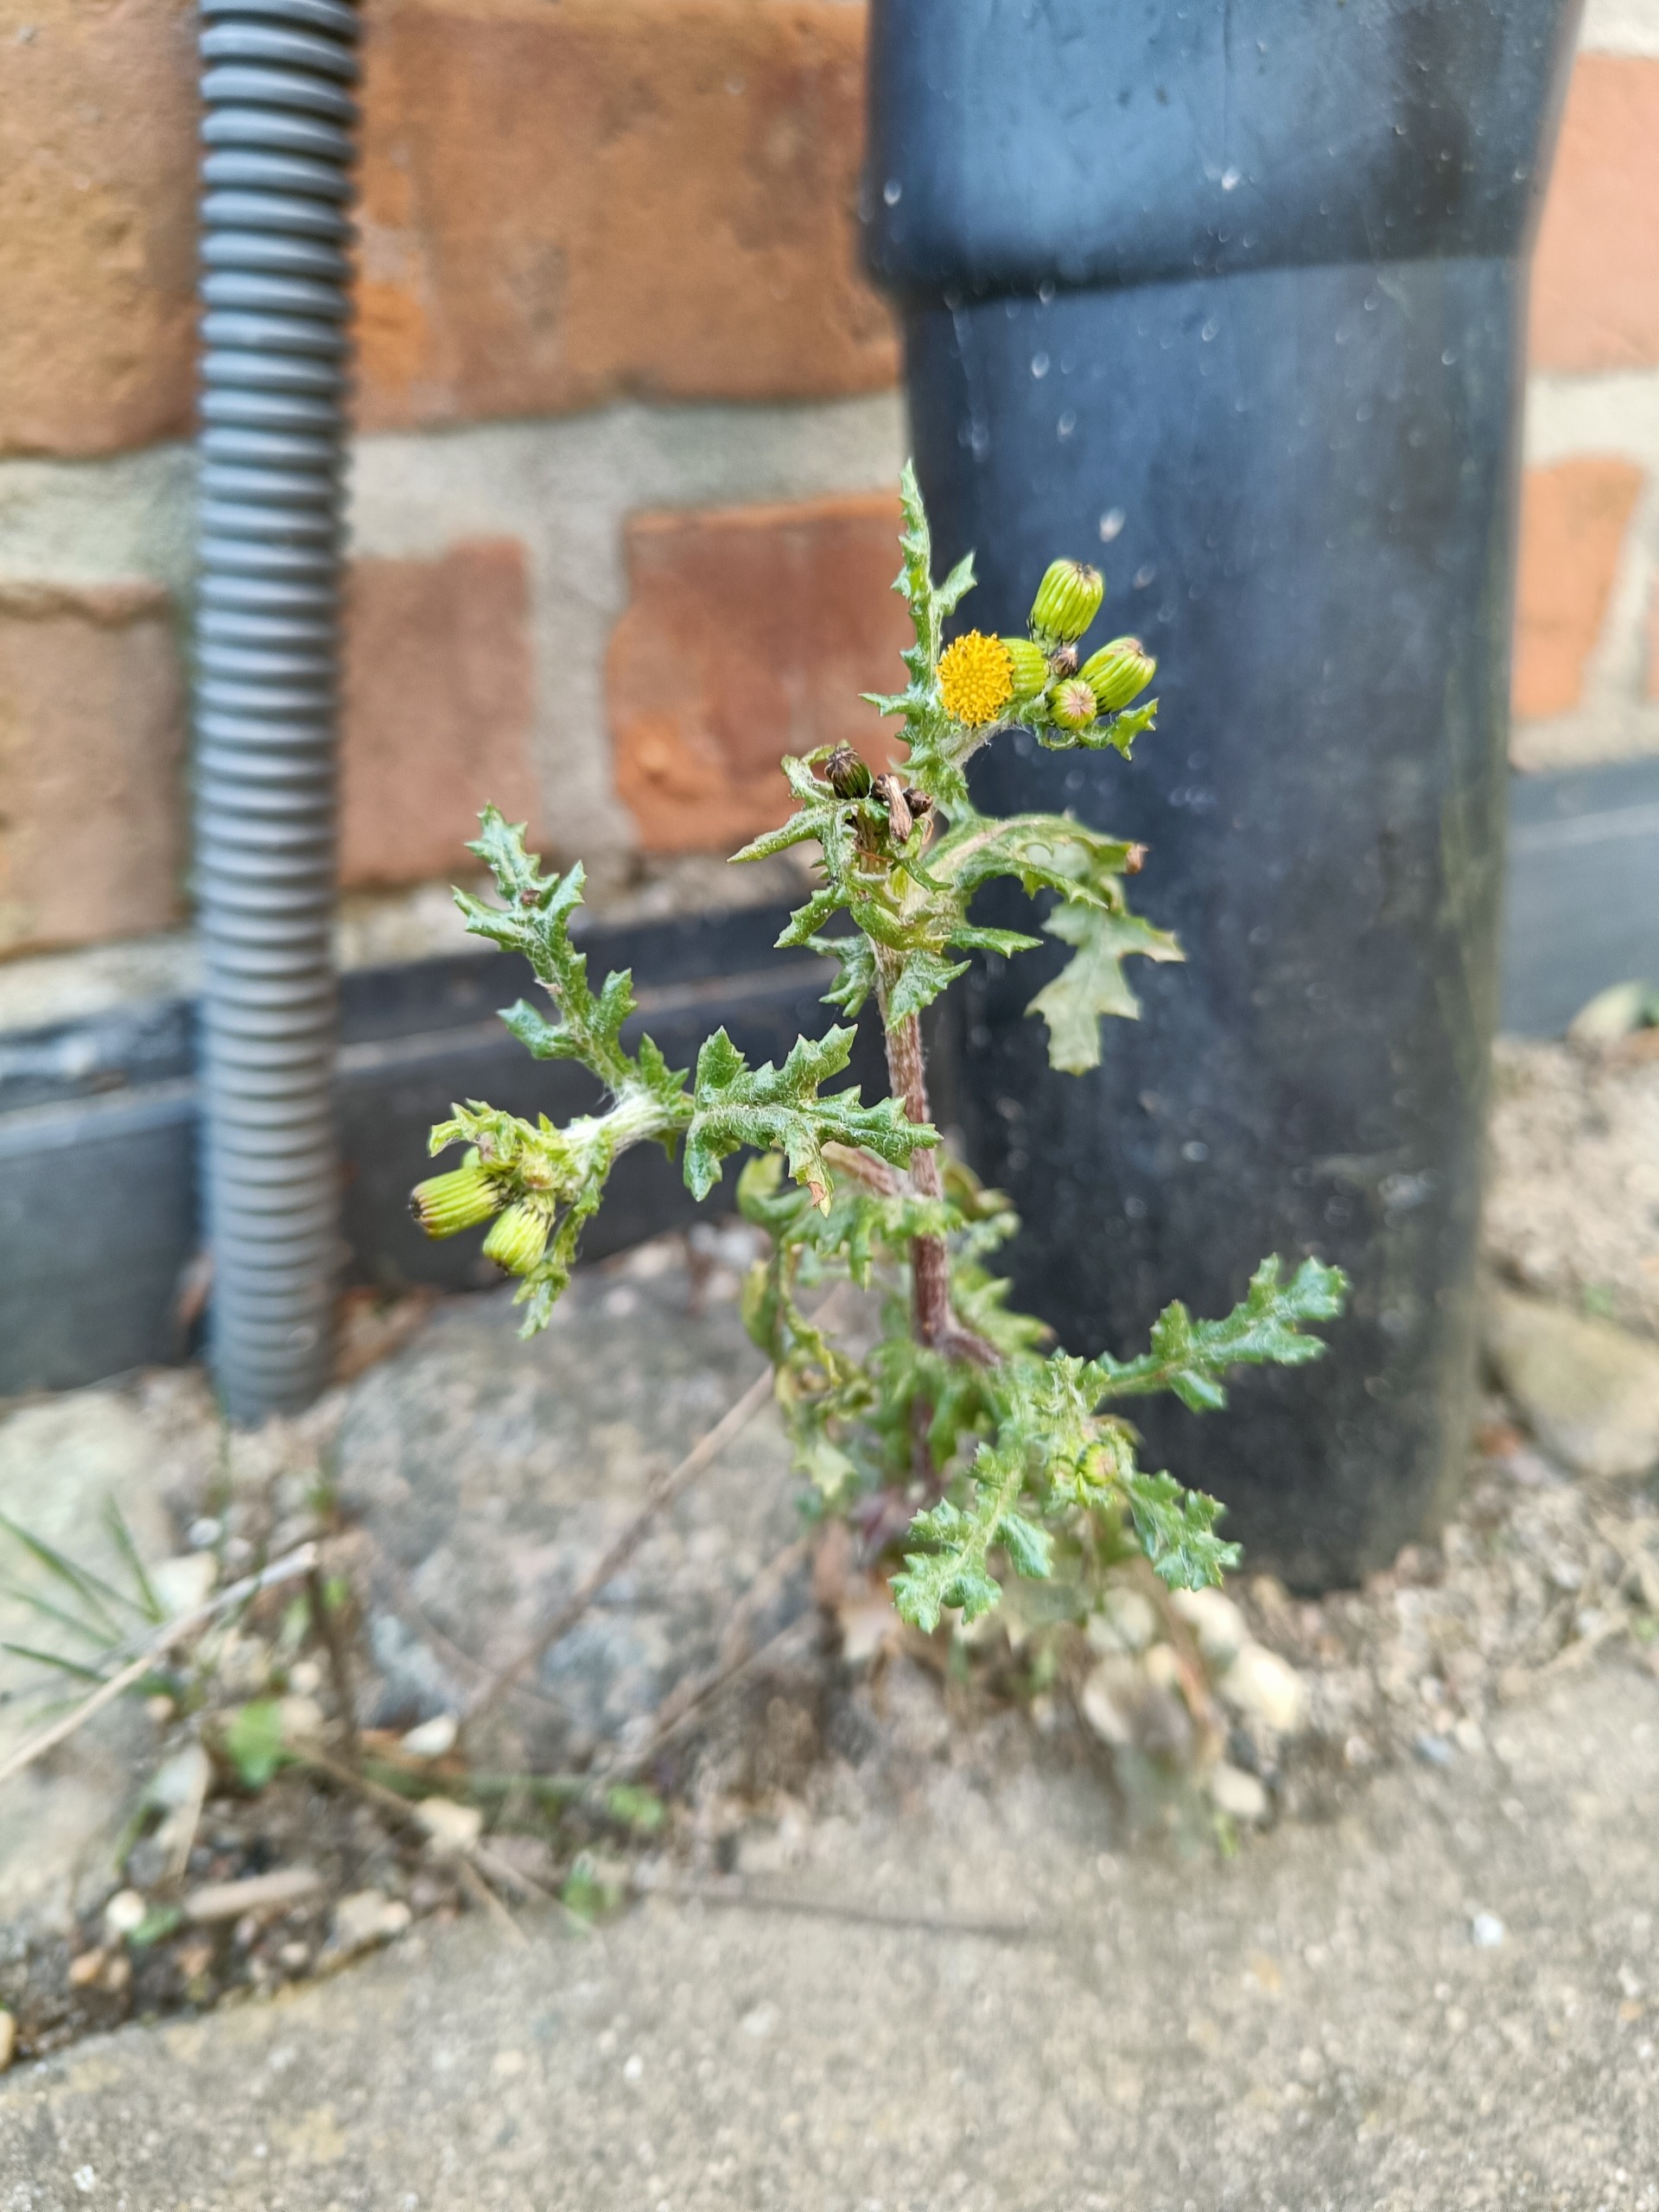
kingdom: Plantae
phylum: Tracheophyta
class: Magnoliopsida
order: Asterales
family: Asteraceae
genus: Senecio
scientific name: Senecio vulgaris
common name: Almindelig brandbæger
